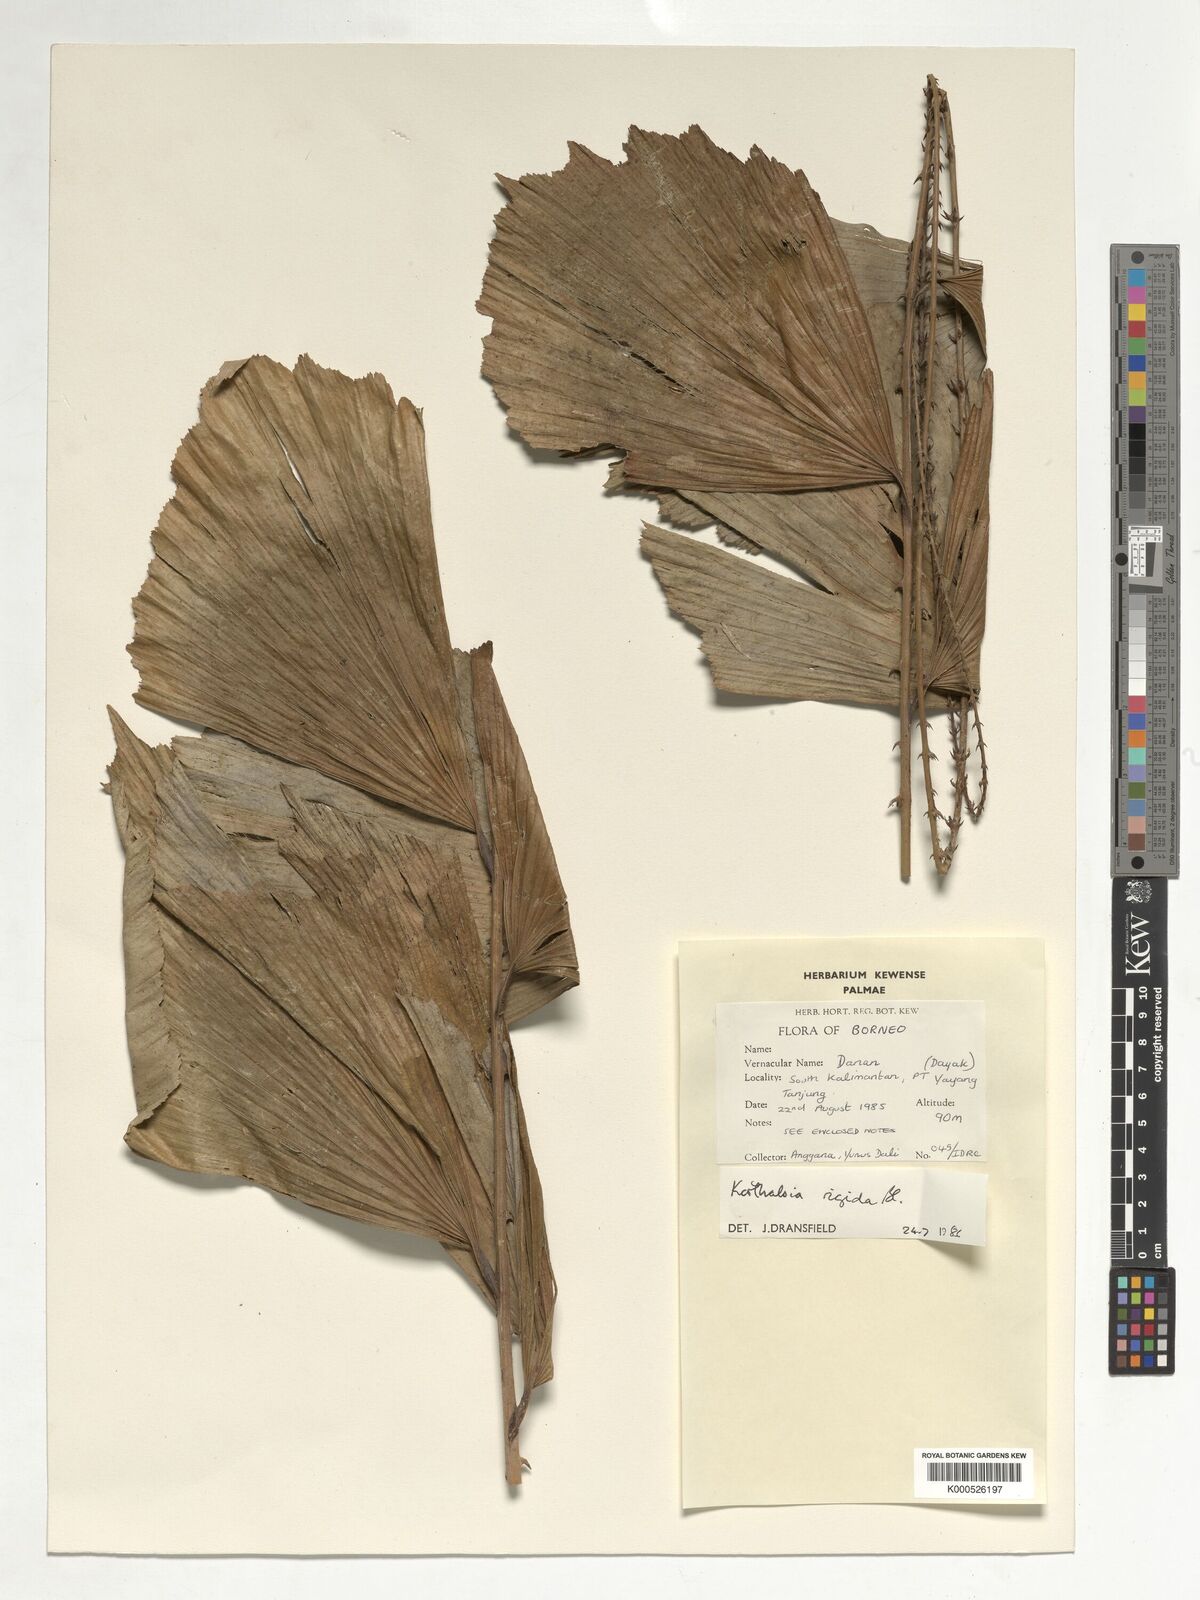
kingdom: Plantae
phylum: Tracheophyta
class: Liliopsida
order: Arecales
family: Arecaceae
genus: Korthalsia
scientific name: Korthalsia rigida
